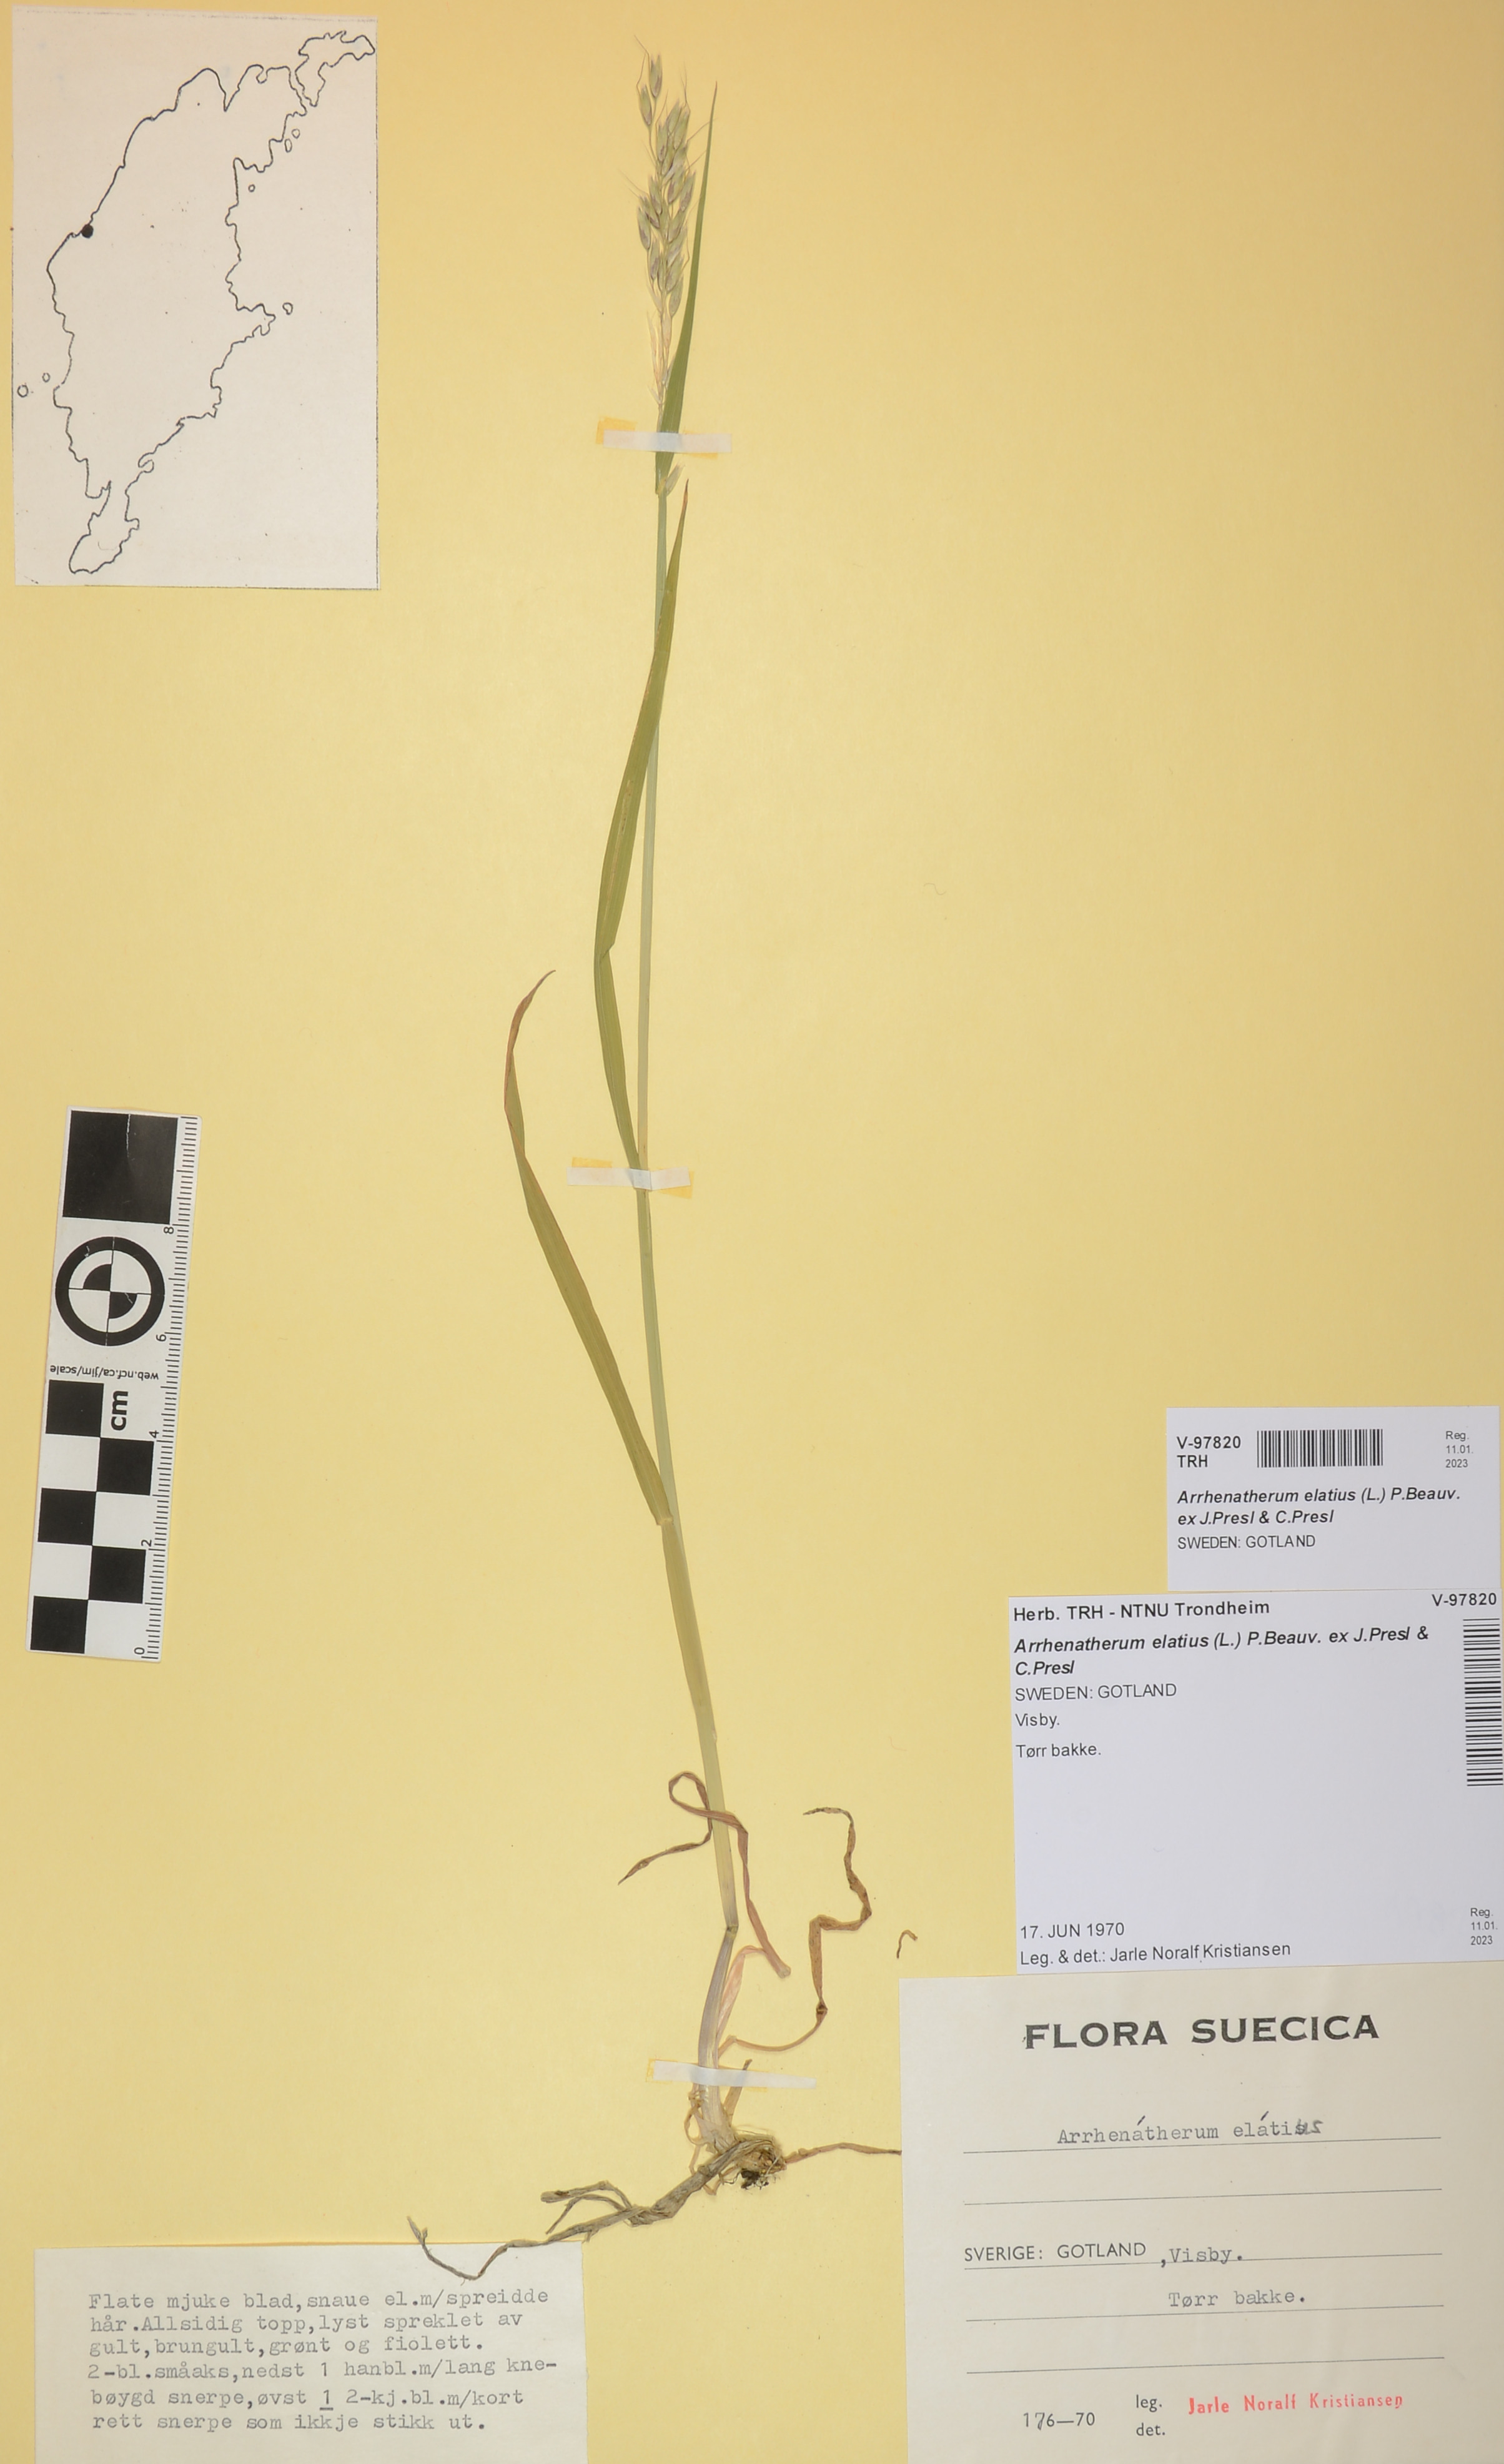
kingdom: Plantae
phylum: Tracheophyta
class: Liliopsida
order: Poales
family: Poaceae
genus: Arrhenatherum
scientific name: Arrhenatherum elatius
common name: Tall oatgrass
